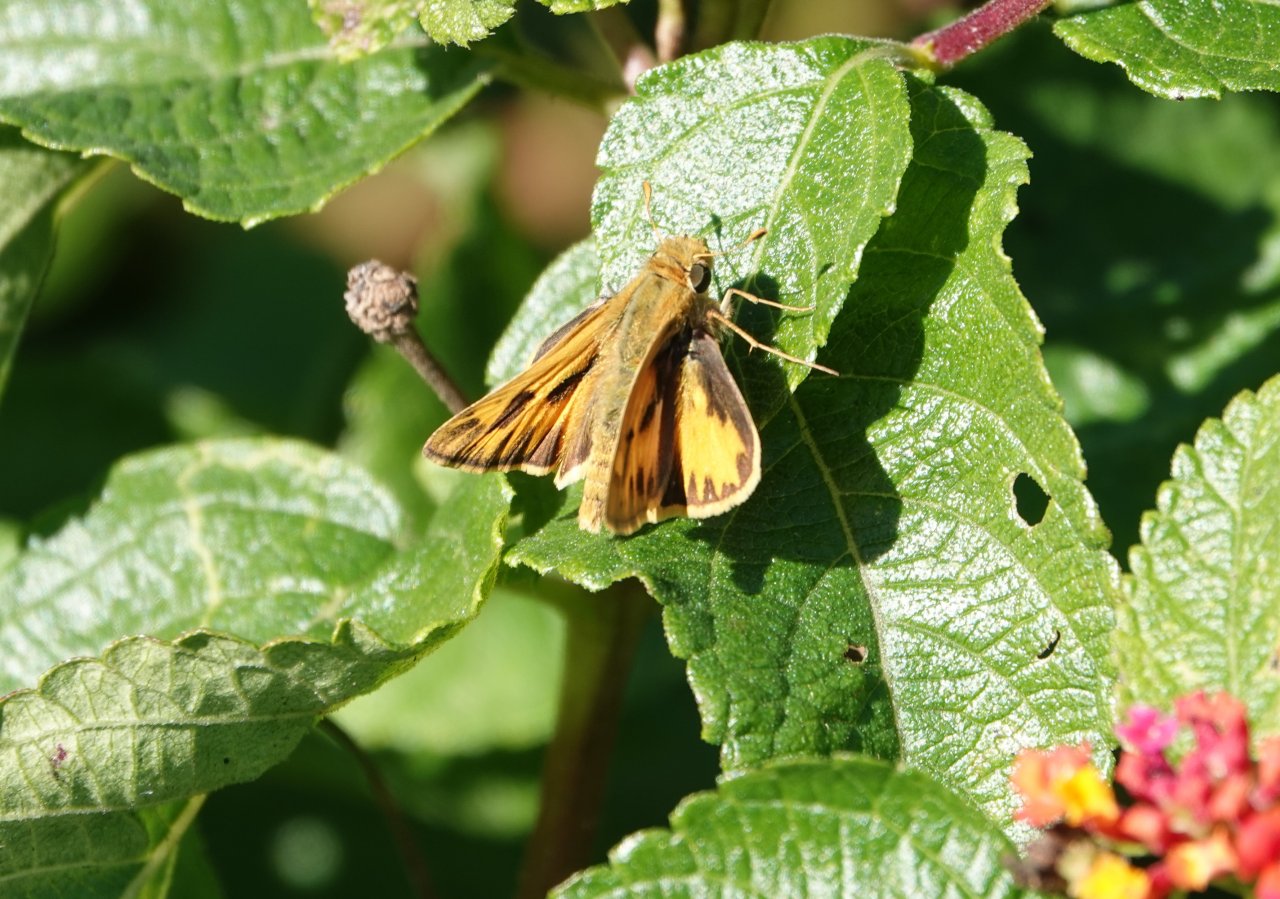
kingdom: Animalia
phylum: Arthropoda
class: Insecta
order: Lepidoptera
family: Hesperiidae
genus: Hylephila
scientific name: Hylephila phyleus
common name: Fiery Skipper
